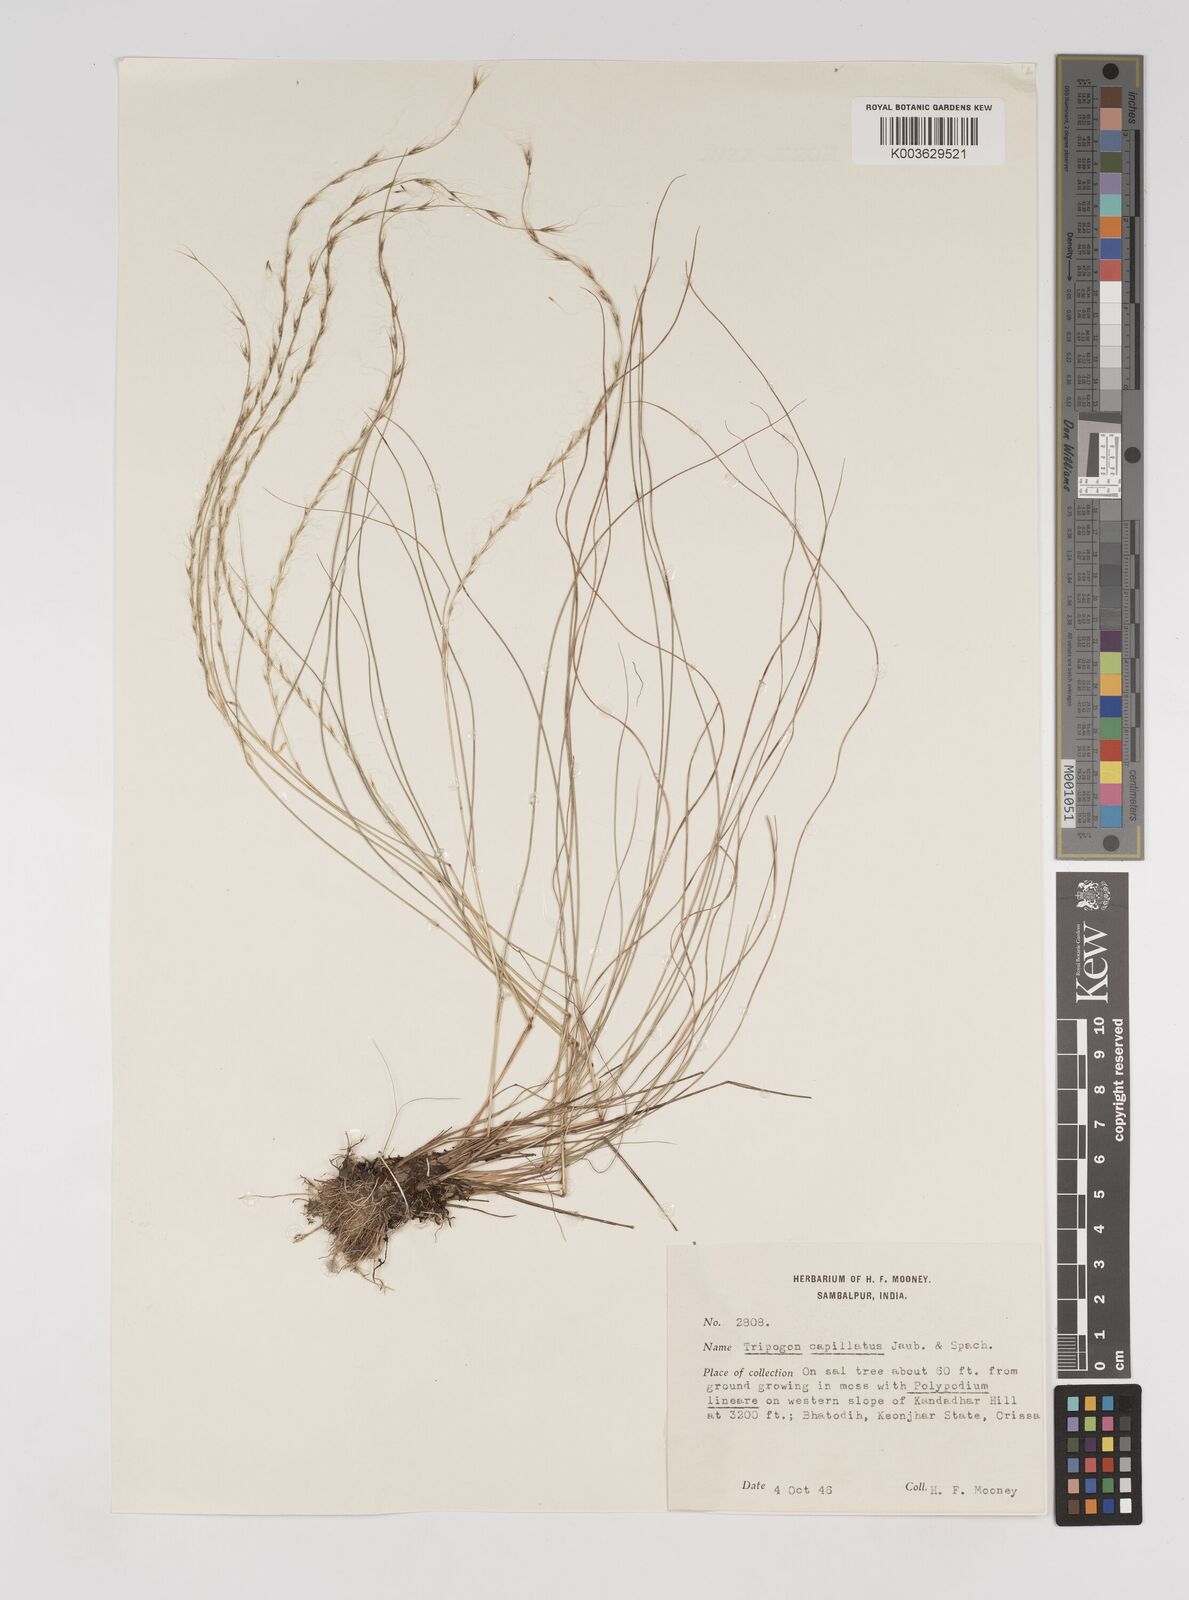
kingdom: Plantae
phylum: Tracheophyta
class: Liliopsida
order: Poales
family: Poaceae
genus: Tripogon
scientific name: Tripogon capillatus
